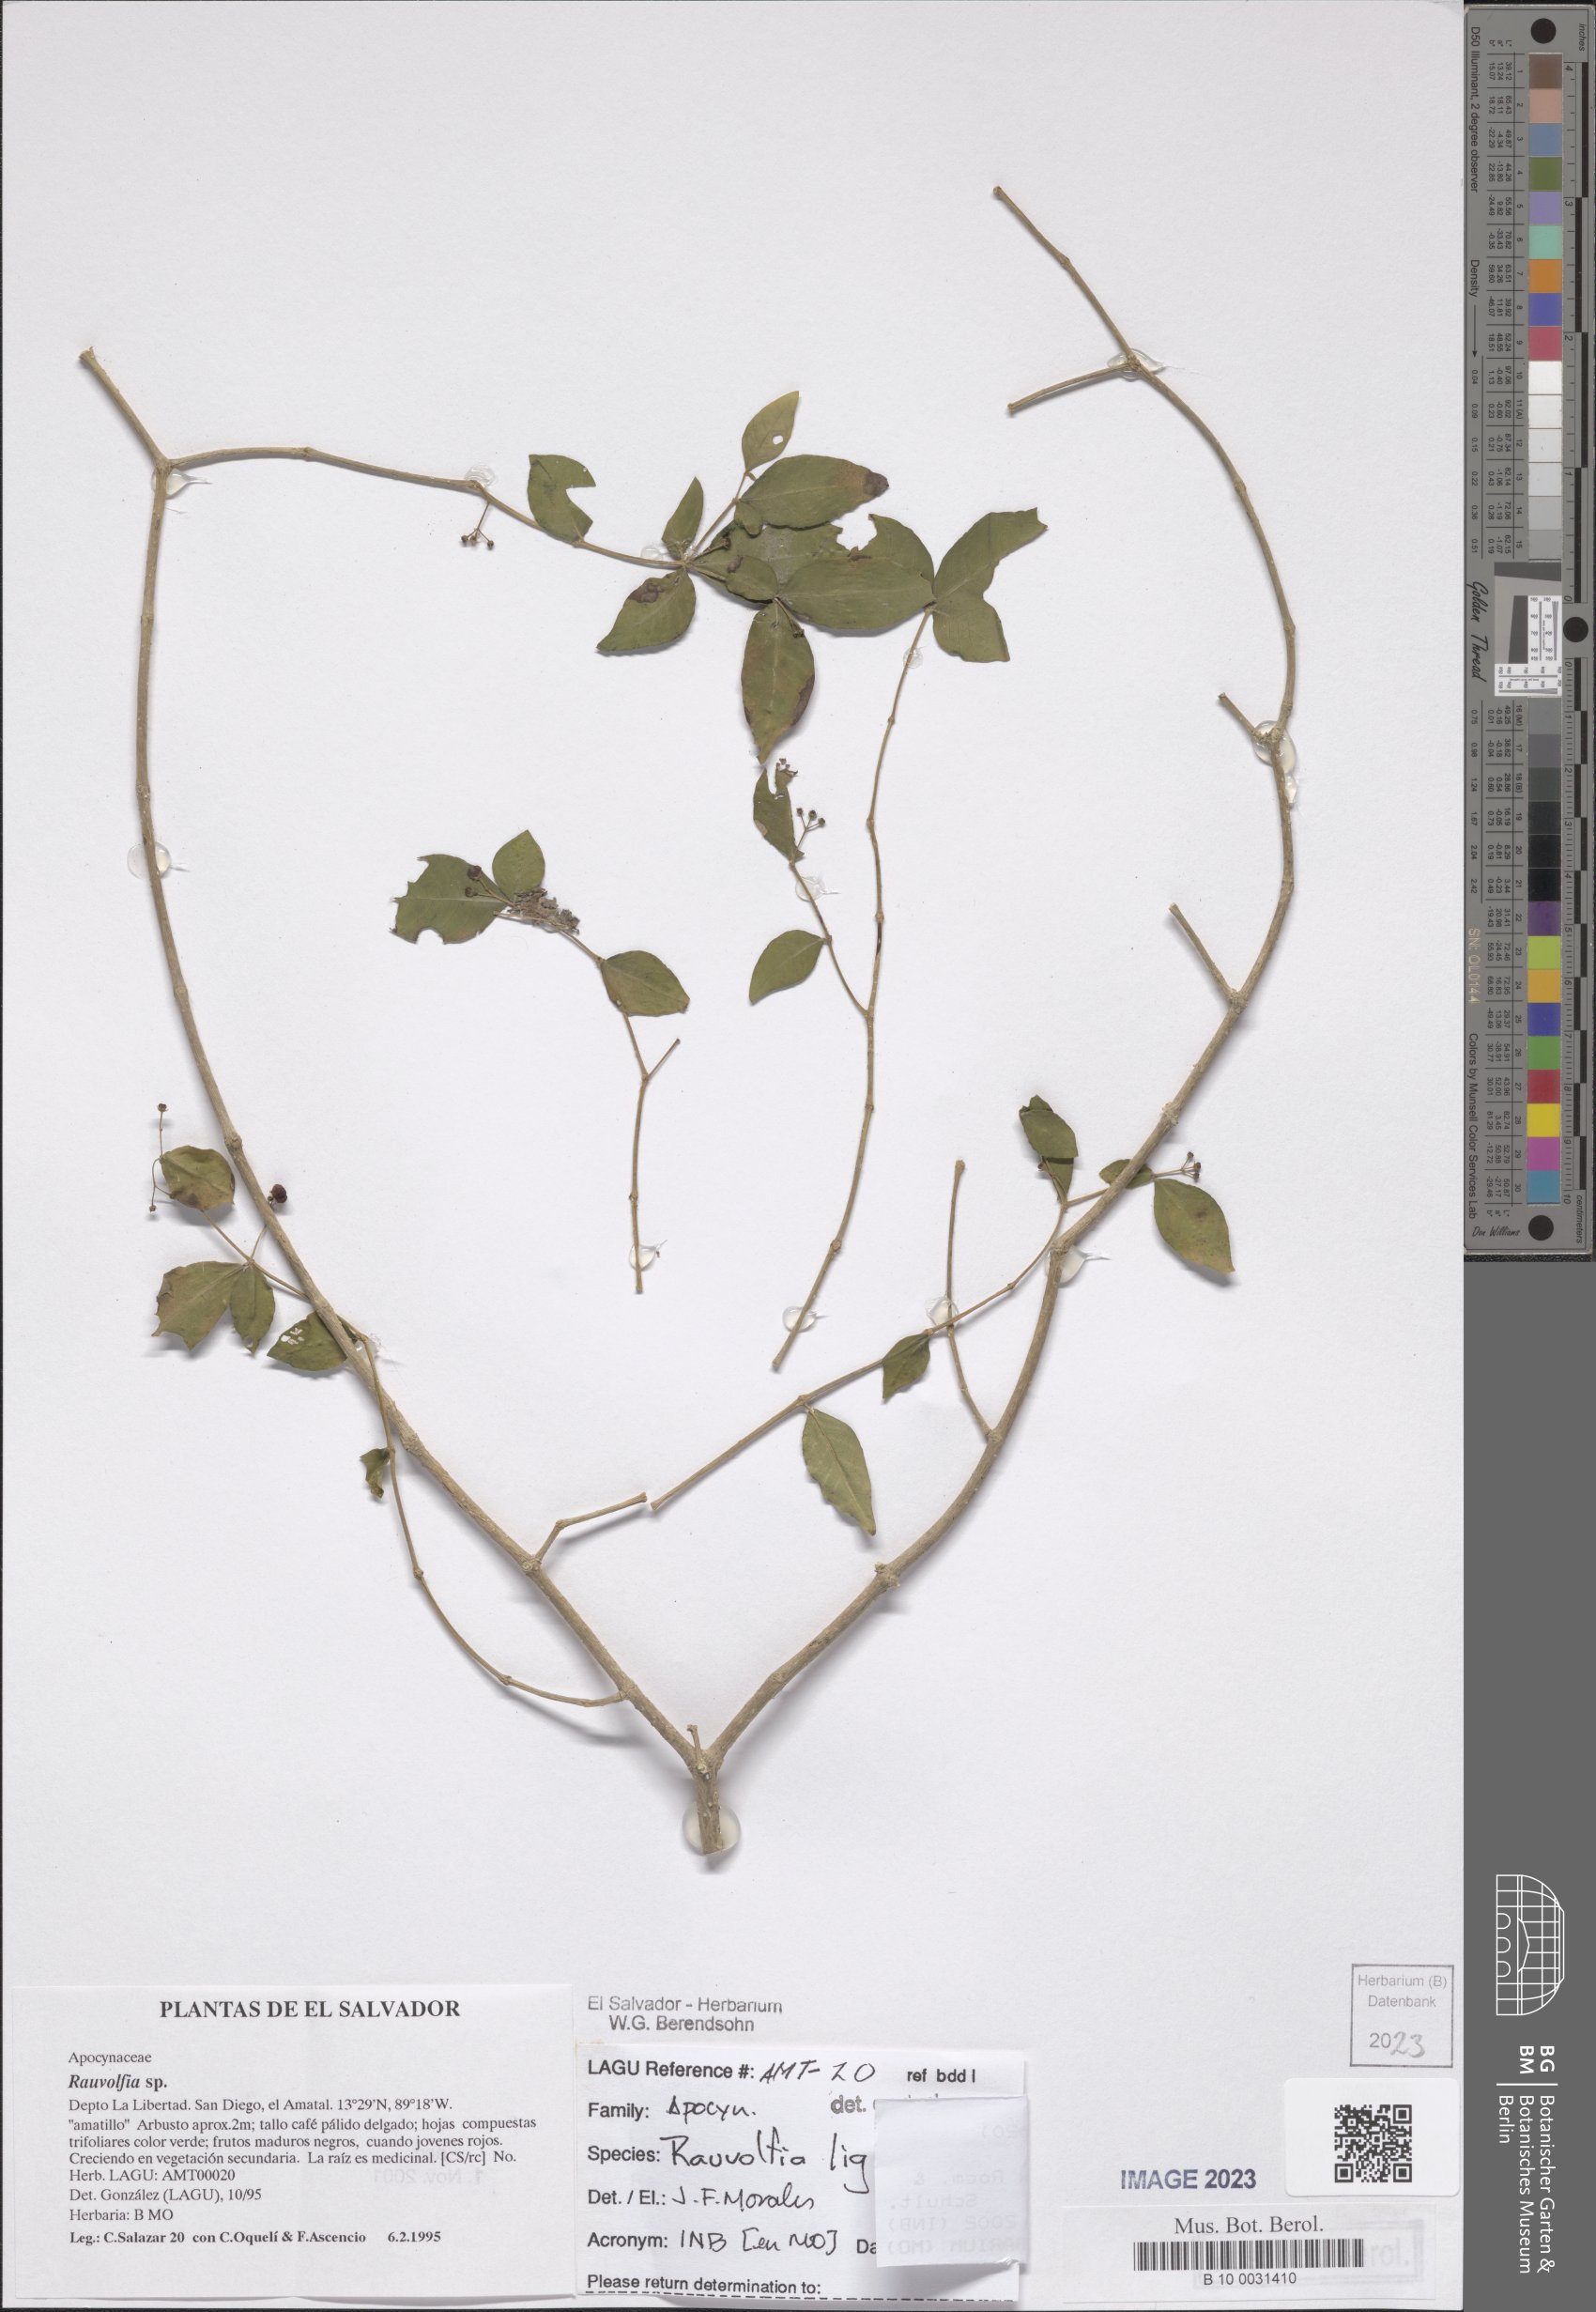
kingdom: Plantae
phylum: Tracheophyta
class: Magnoliopsida
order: Gentianales
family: Apocynaceae
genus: Rauvolfia
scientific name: Rauvolfia ligustrina
